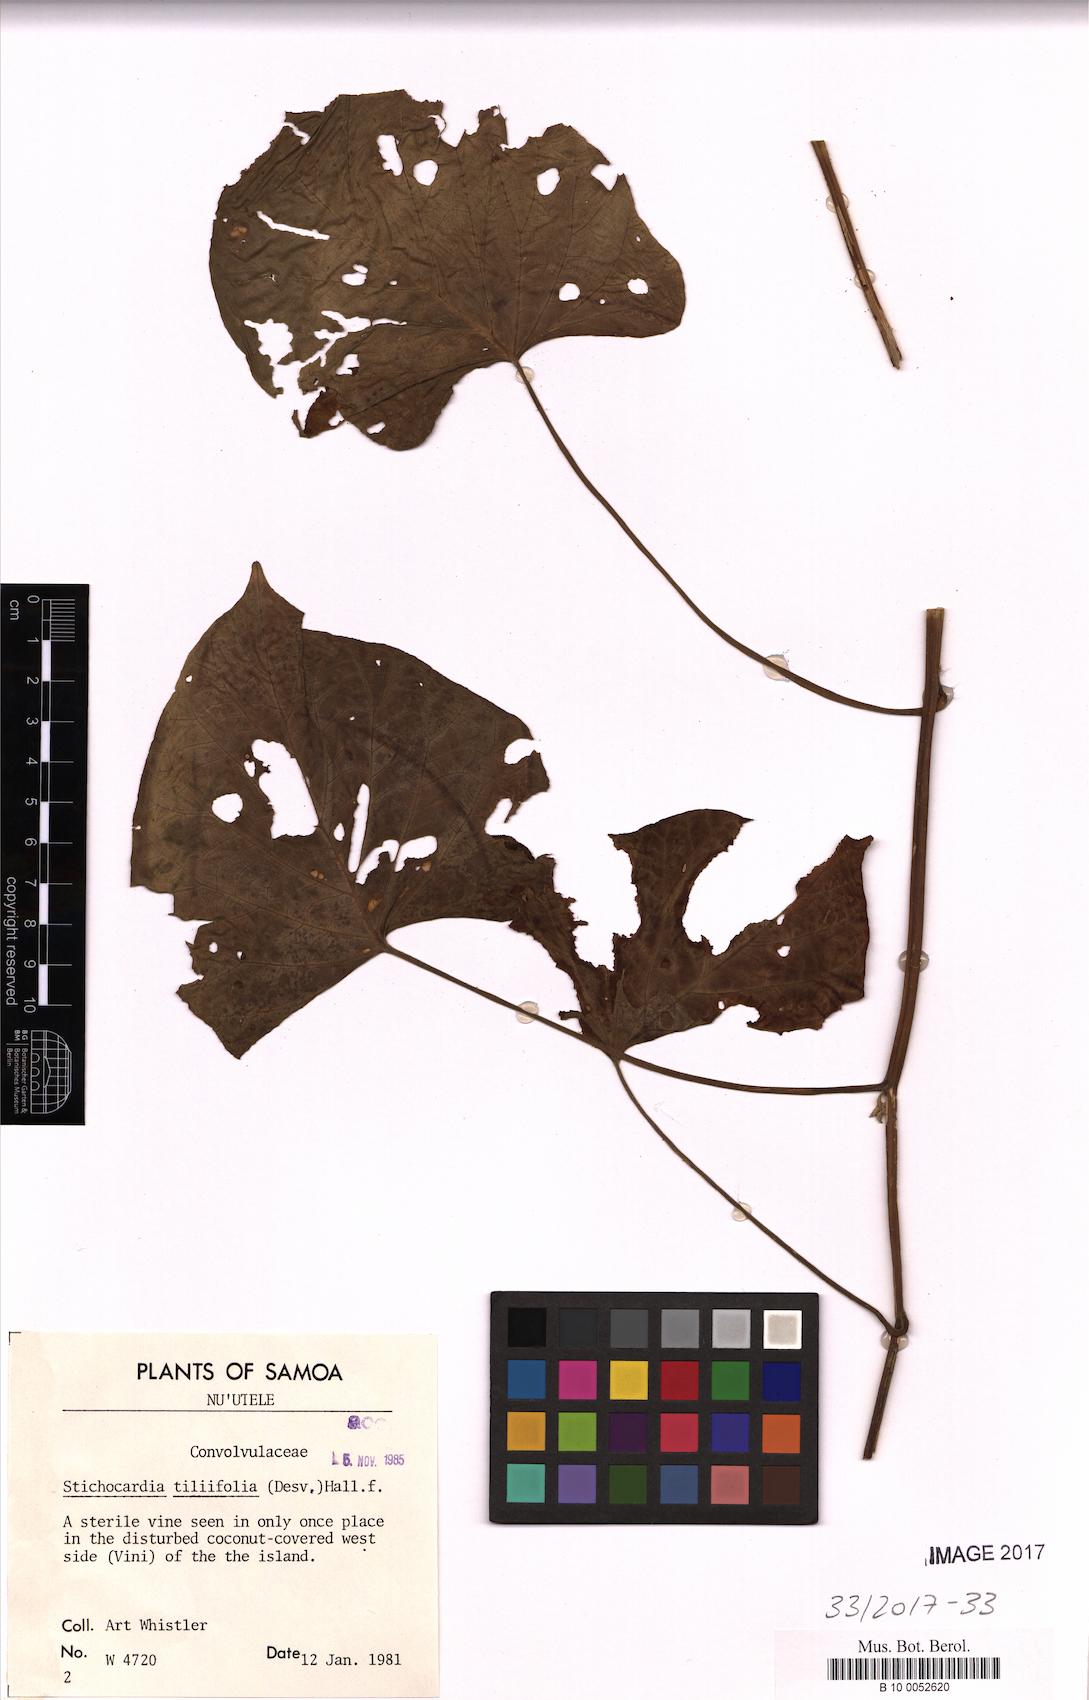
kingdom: Plantae
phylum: Tracheophyta
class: Magnoliopsida
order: Solanales
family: Convolvulaceae
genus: Stictocardia
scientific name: Stictocardia tiliifolia
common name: Spottedheart
